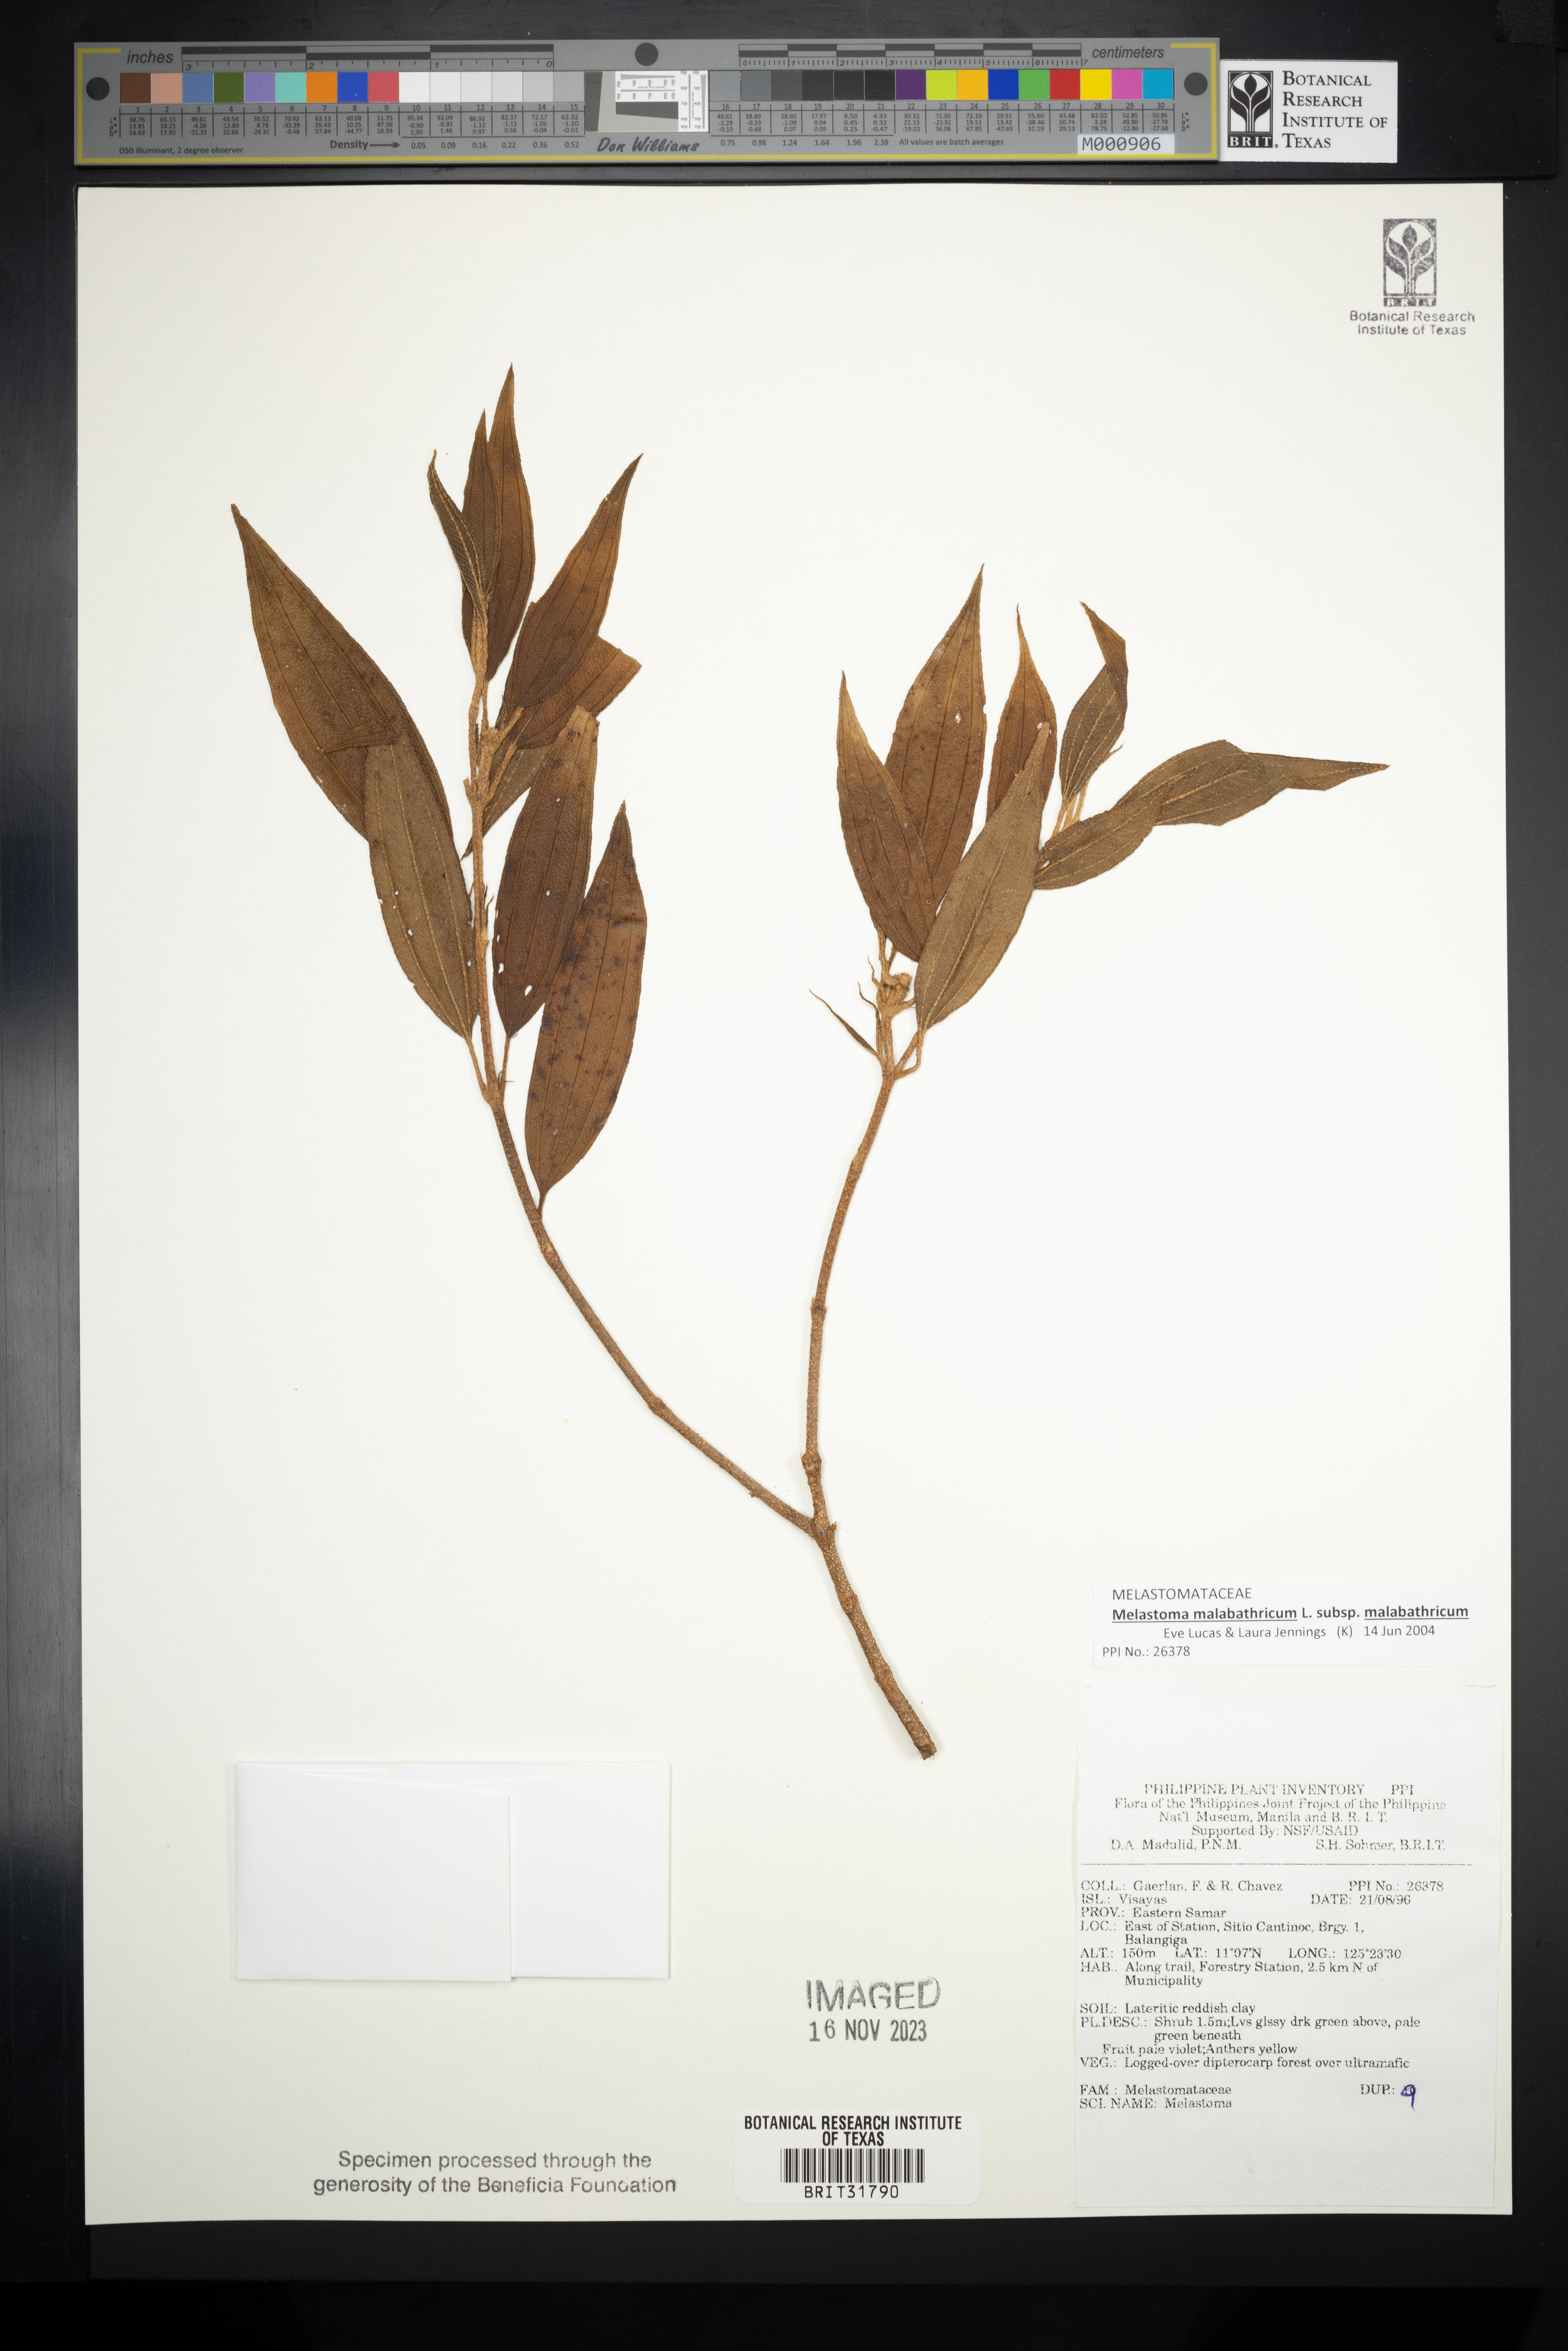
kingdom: Plantae
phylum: Tracheophyta
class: Magnoliopsida
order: Myrtales
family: Melastomataceae
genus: Melastoma
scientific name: Melastoma
